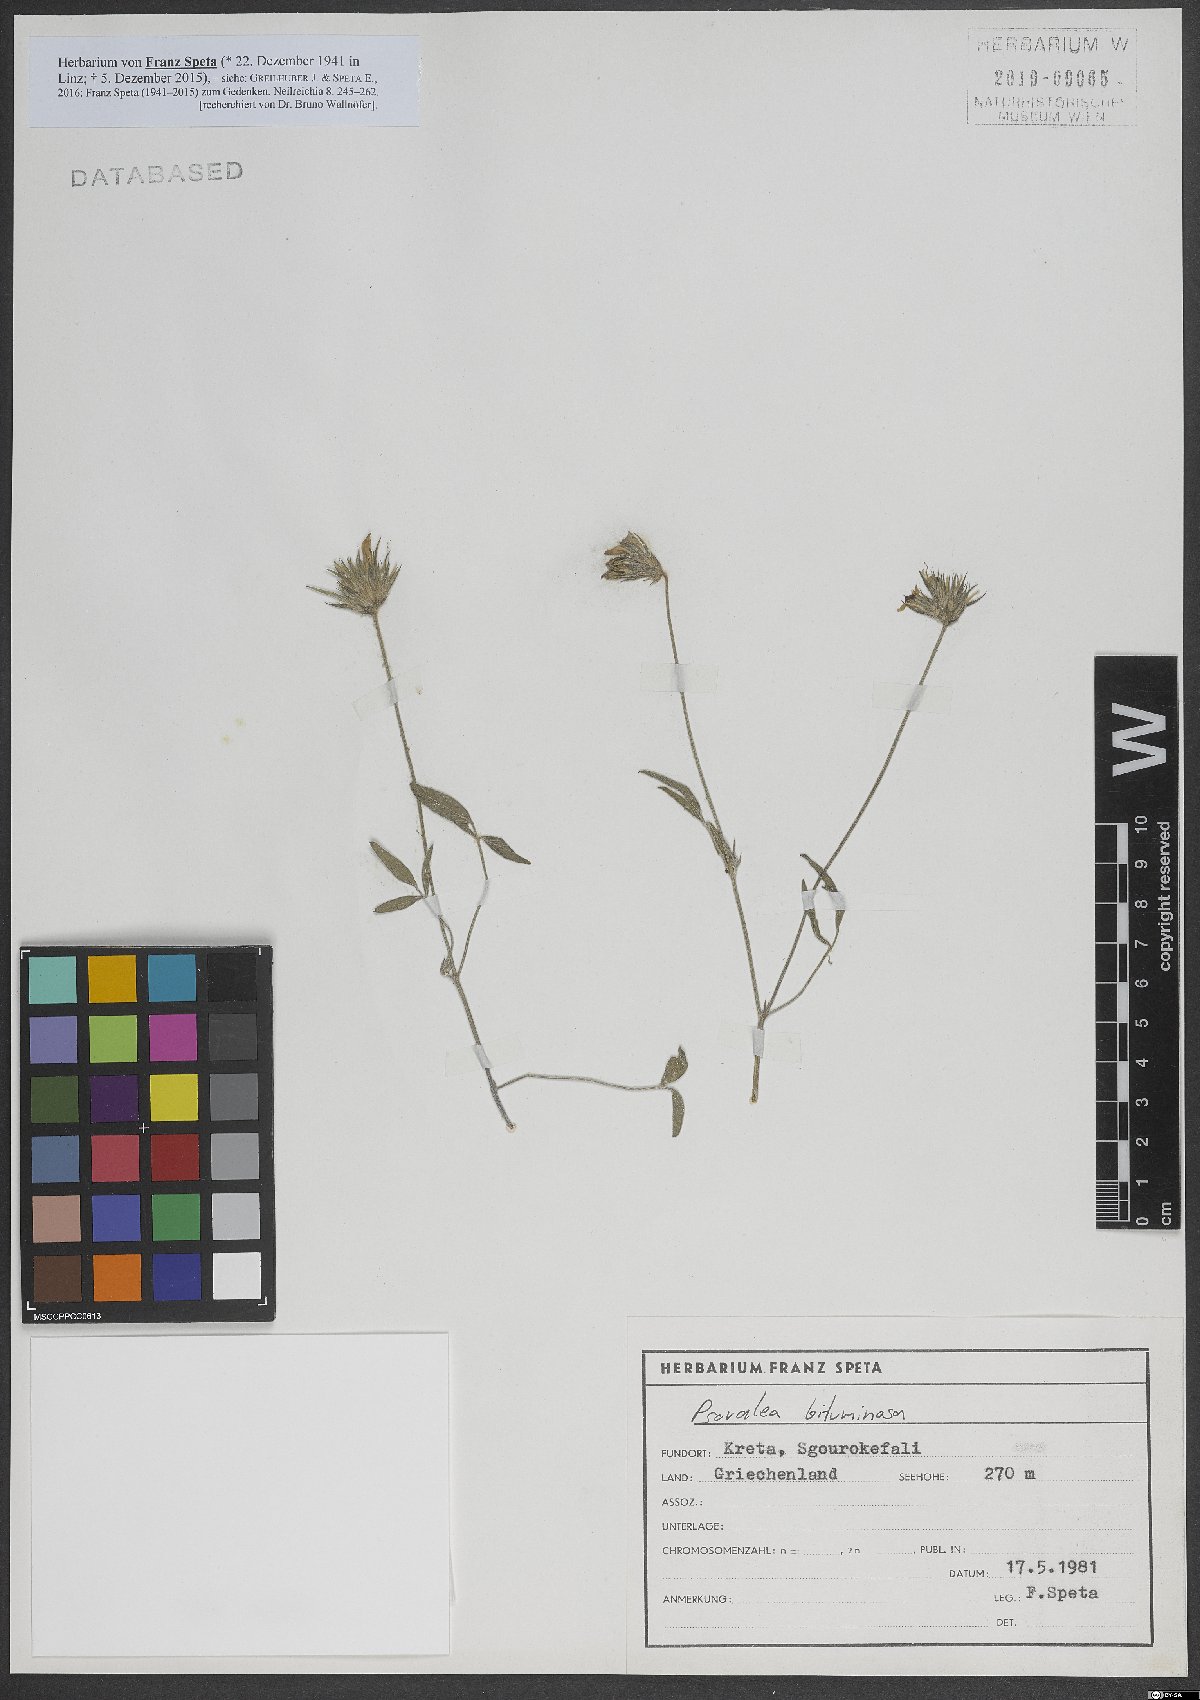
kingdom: Plantae
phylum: Tracheophyta
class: Magnoliopsida
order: Fabales
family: Fabaceae
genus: Bituminaria
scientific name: Bituminaria bituminosa
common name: Arabian pea
